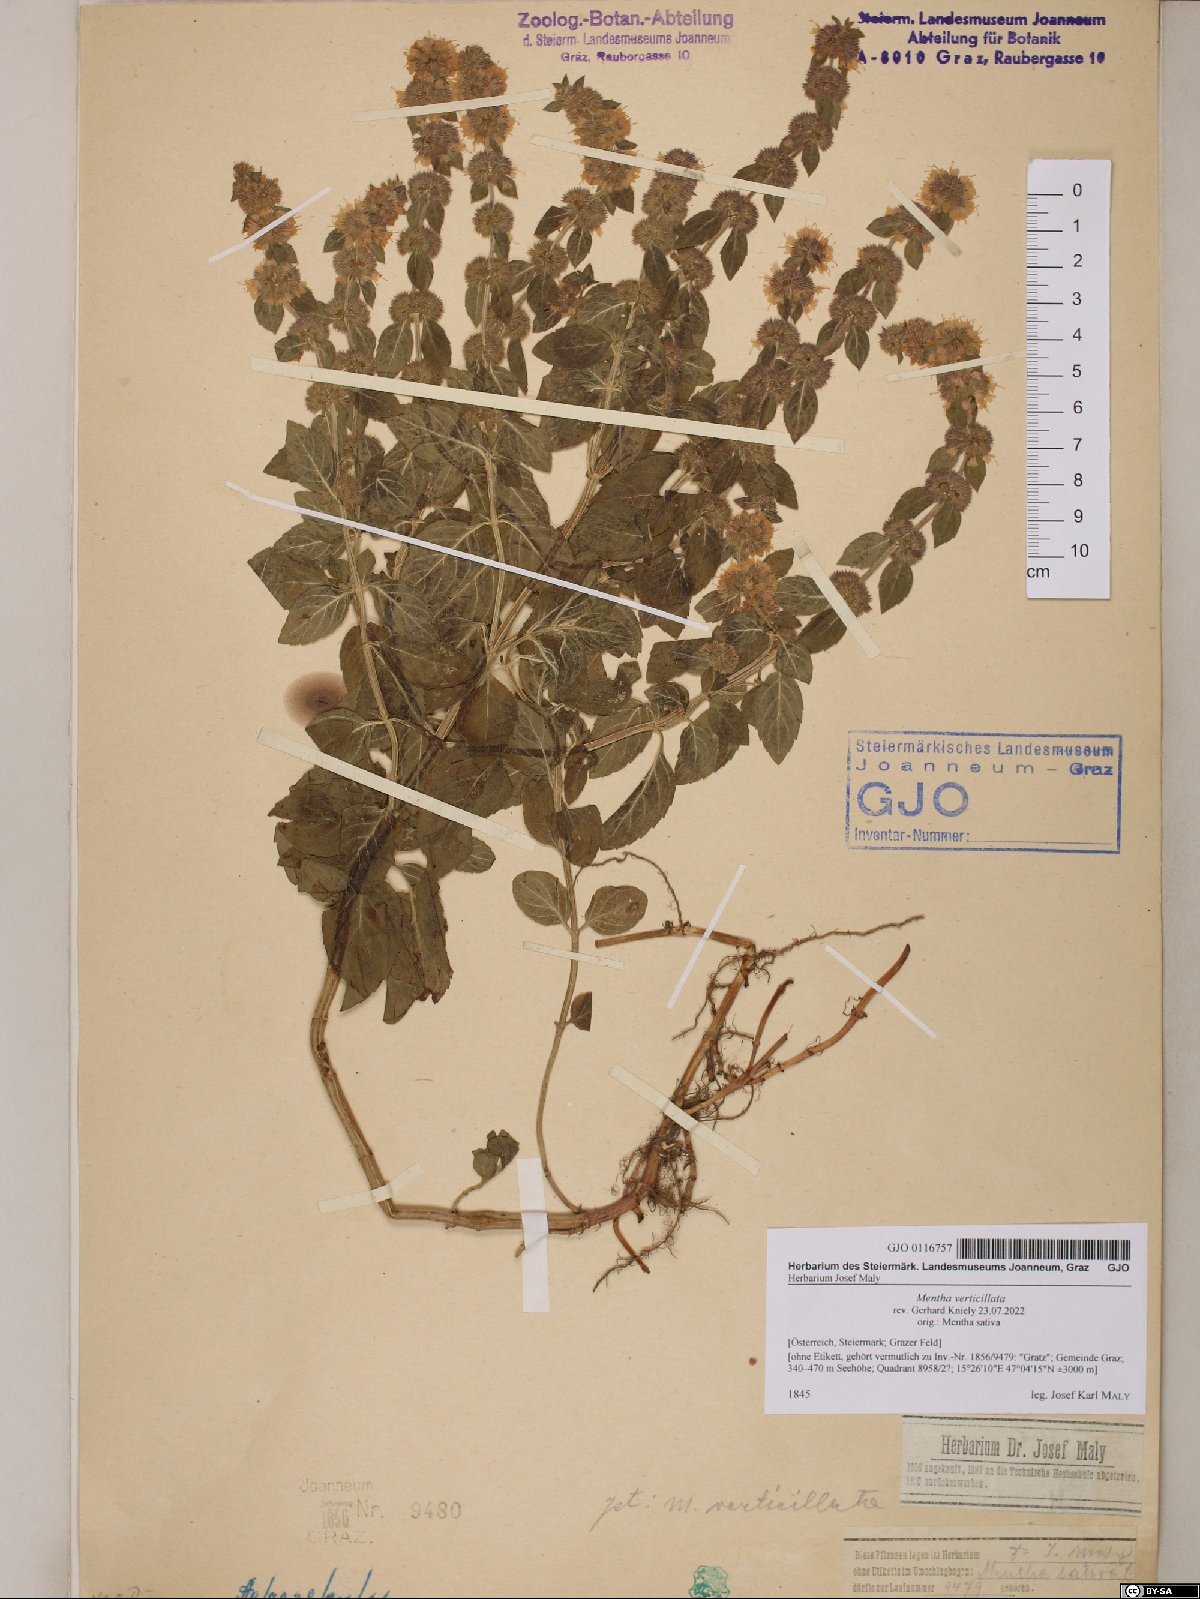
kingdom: Plantae
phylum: Tracheophyta
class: Magnoliopsida
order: Lamiales
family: Lamiaceae
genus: Mentha
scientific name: Mentha verticillata
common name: Mint
